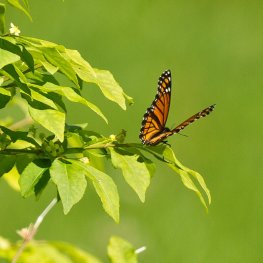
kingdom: Animalia
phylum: Arthropoda
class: Insecta
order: Lepidoptera
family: Nymphalidae
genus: Limenitis
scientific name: Limenitis archippus
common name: Viceroy
